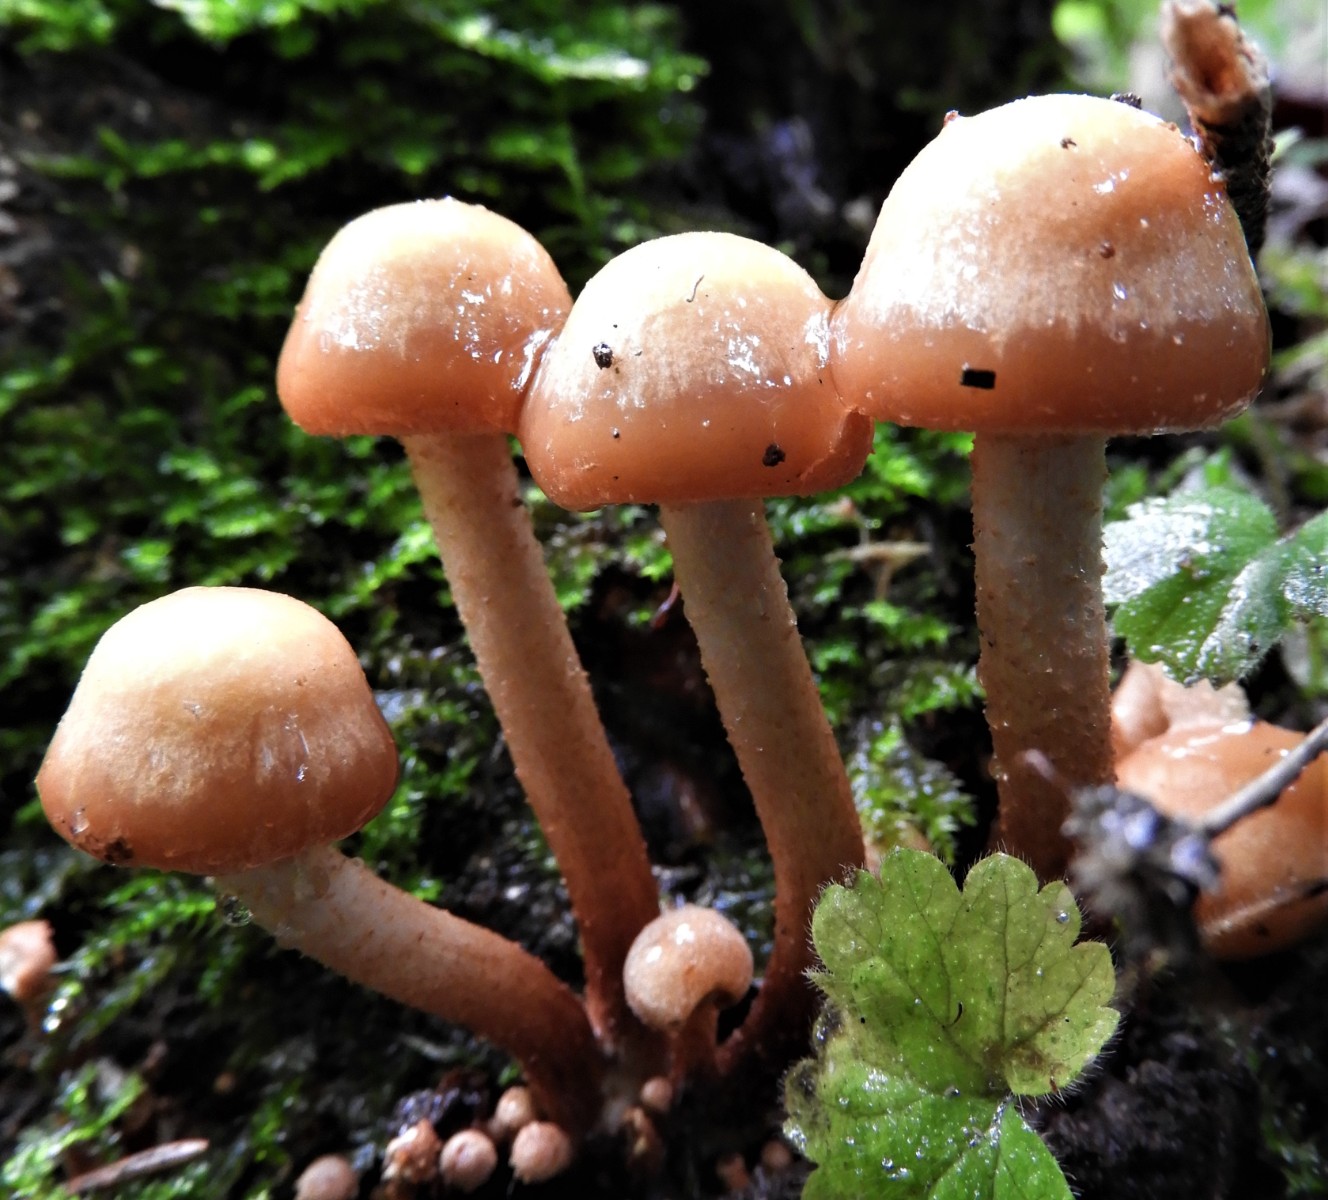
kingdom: Fungi
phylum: Basidiomycota
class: Agaricomycetes
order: Agaricales
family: Strophariaceae
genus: Kuehneromyces
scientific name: Kuehneromyces mutabilis
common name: foranderlig skælhat
